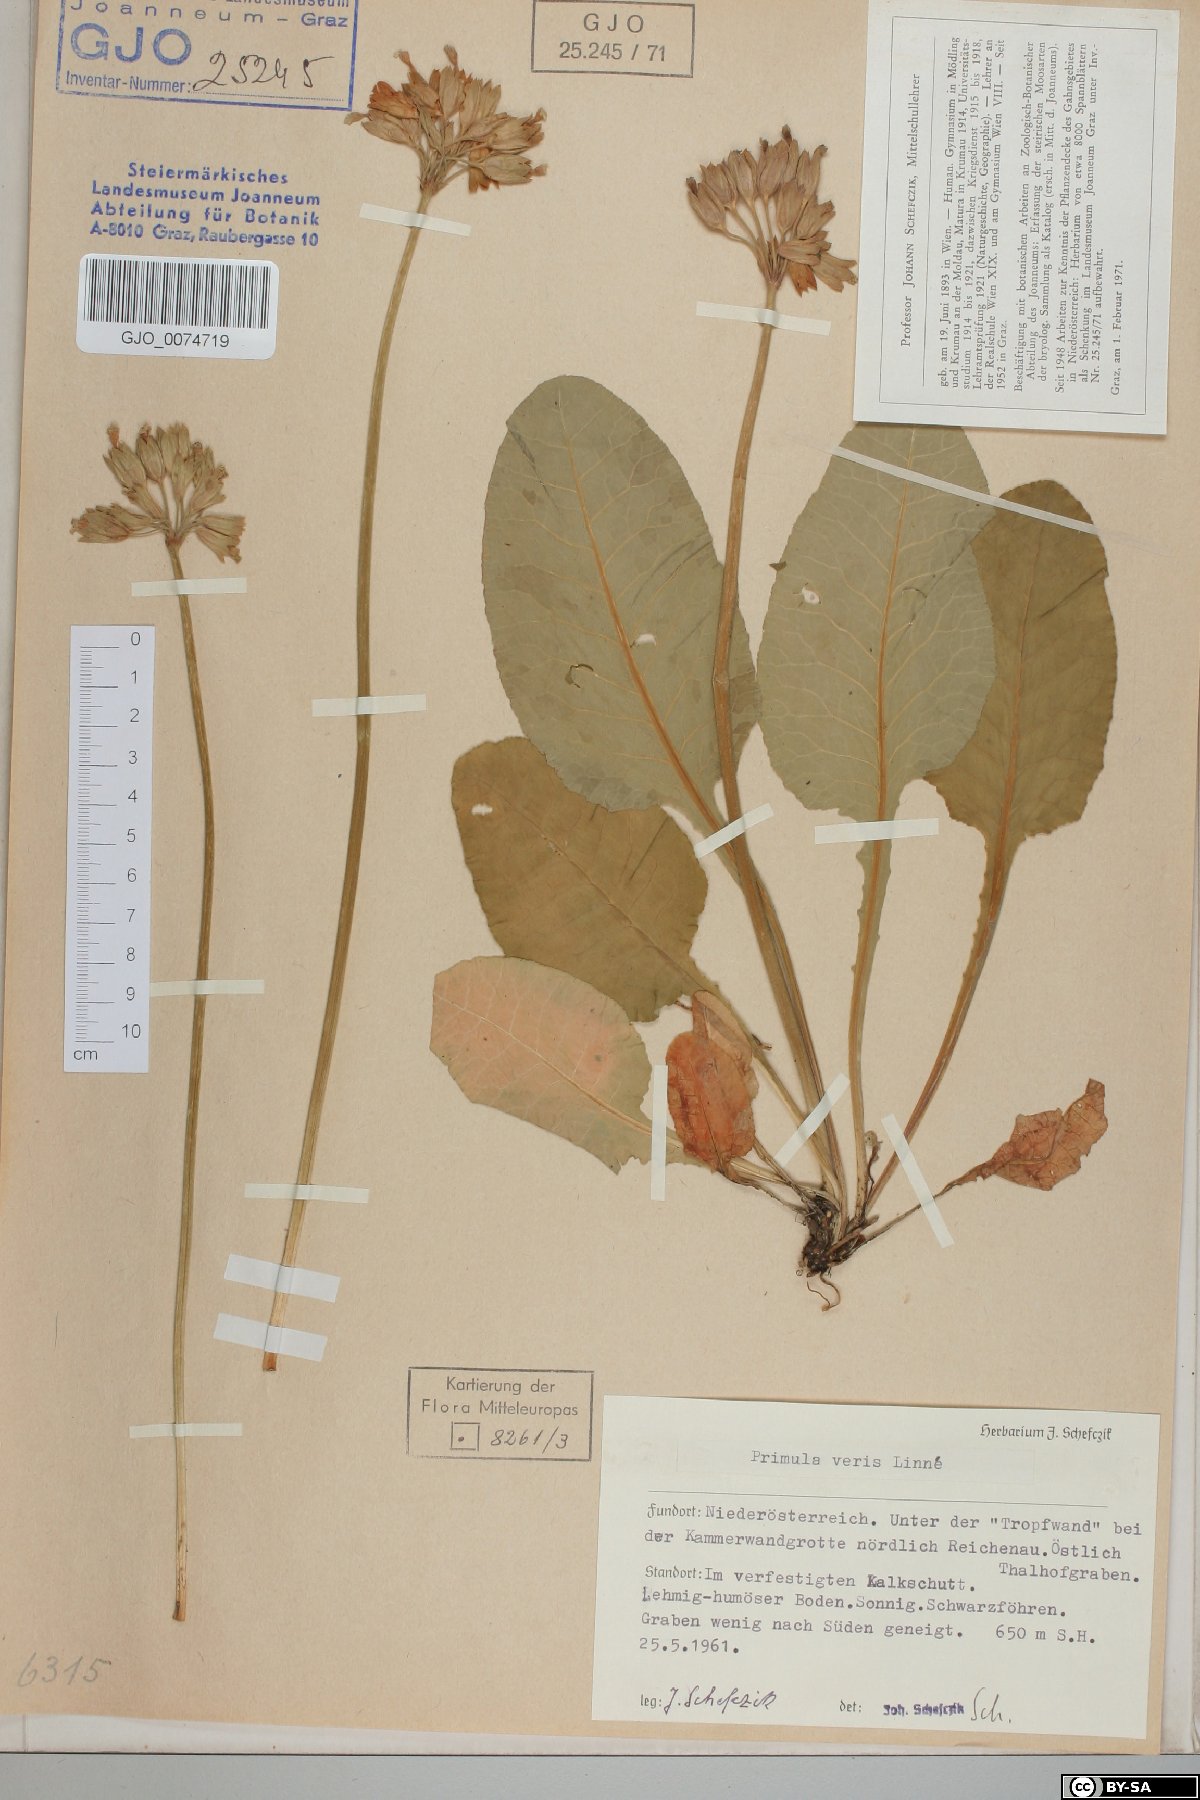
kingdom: Plantae
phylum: Tracheophyta
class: Magnoliopsida
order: Ericales
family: Primulaceae
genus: Primula
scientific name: Primula veris
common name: Cowslip
